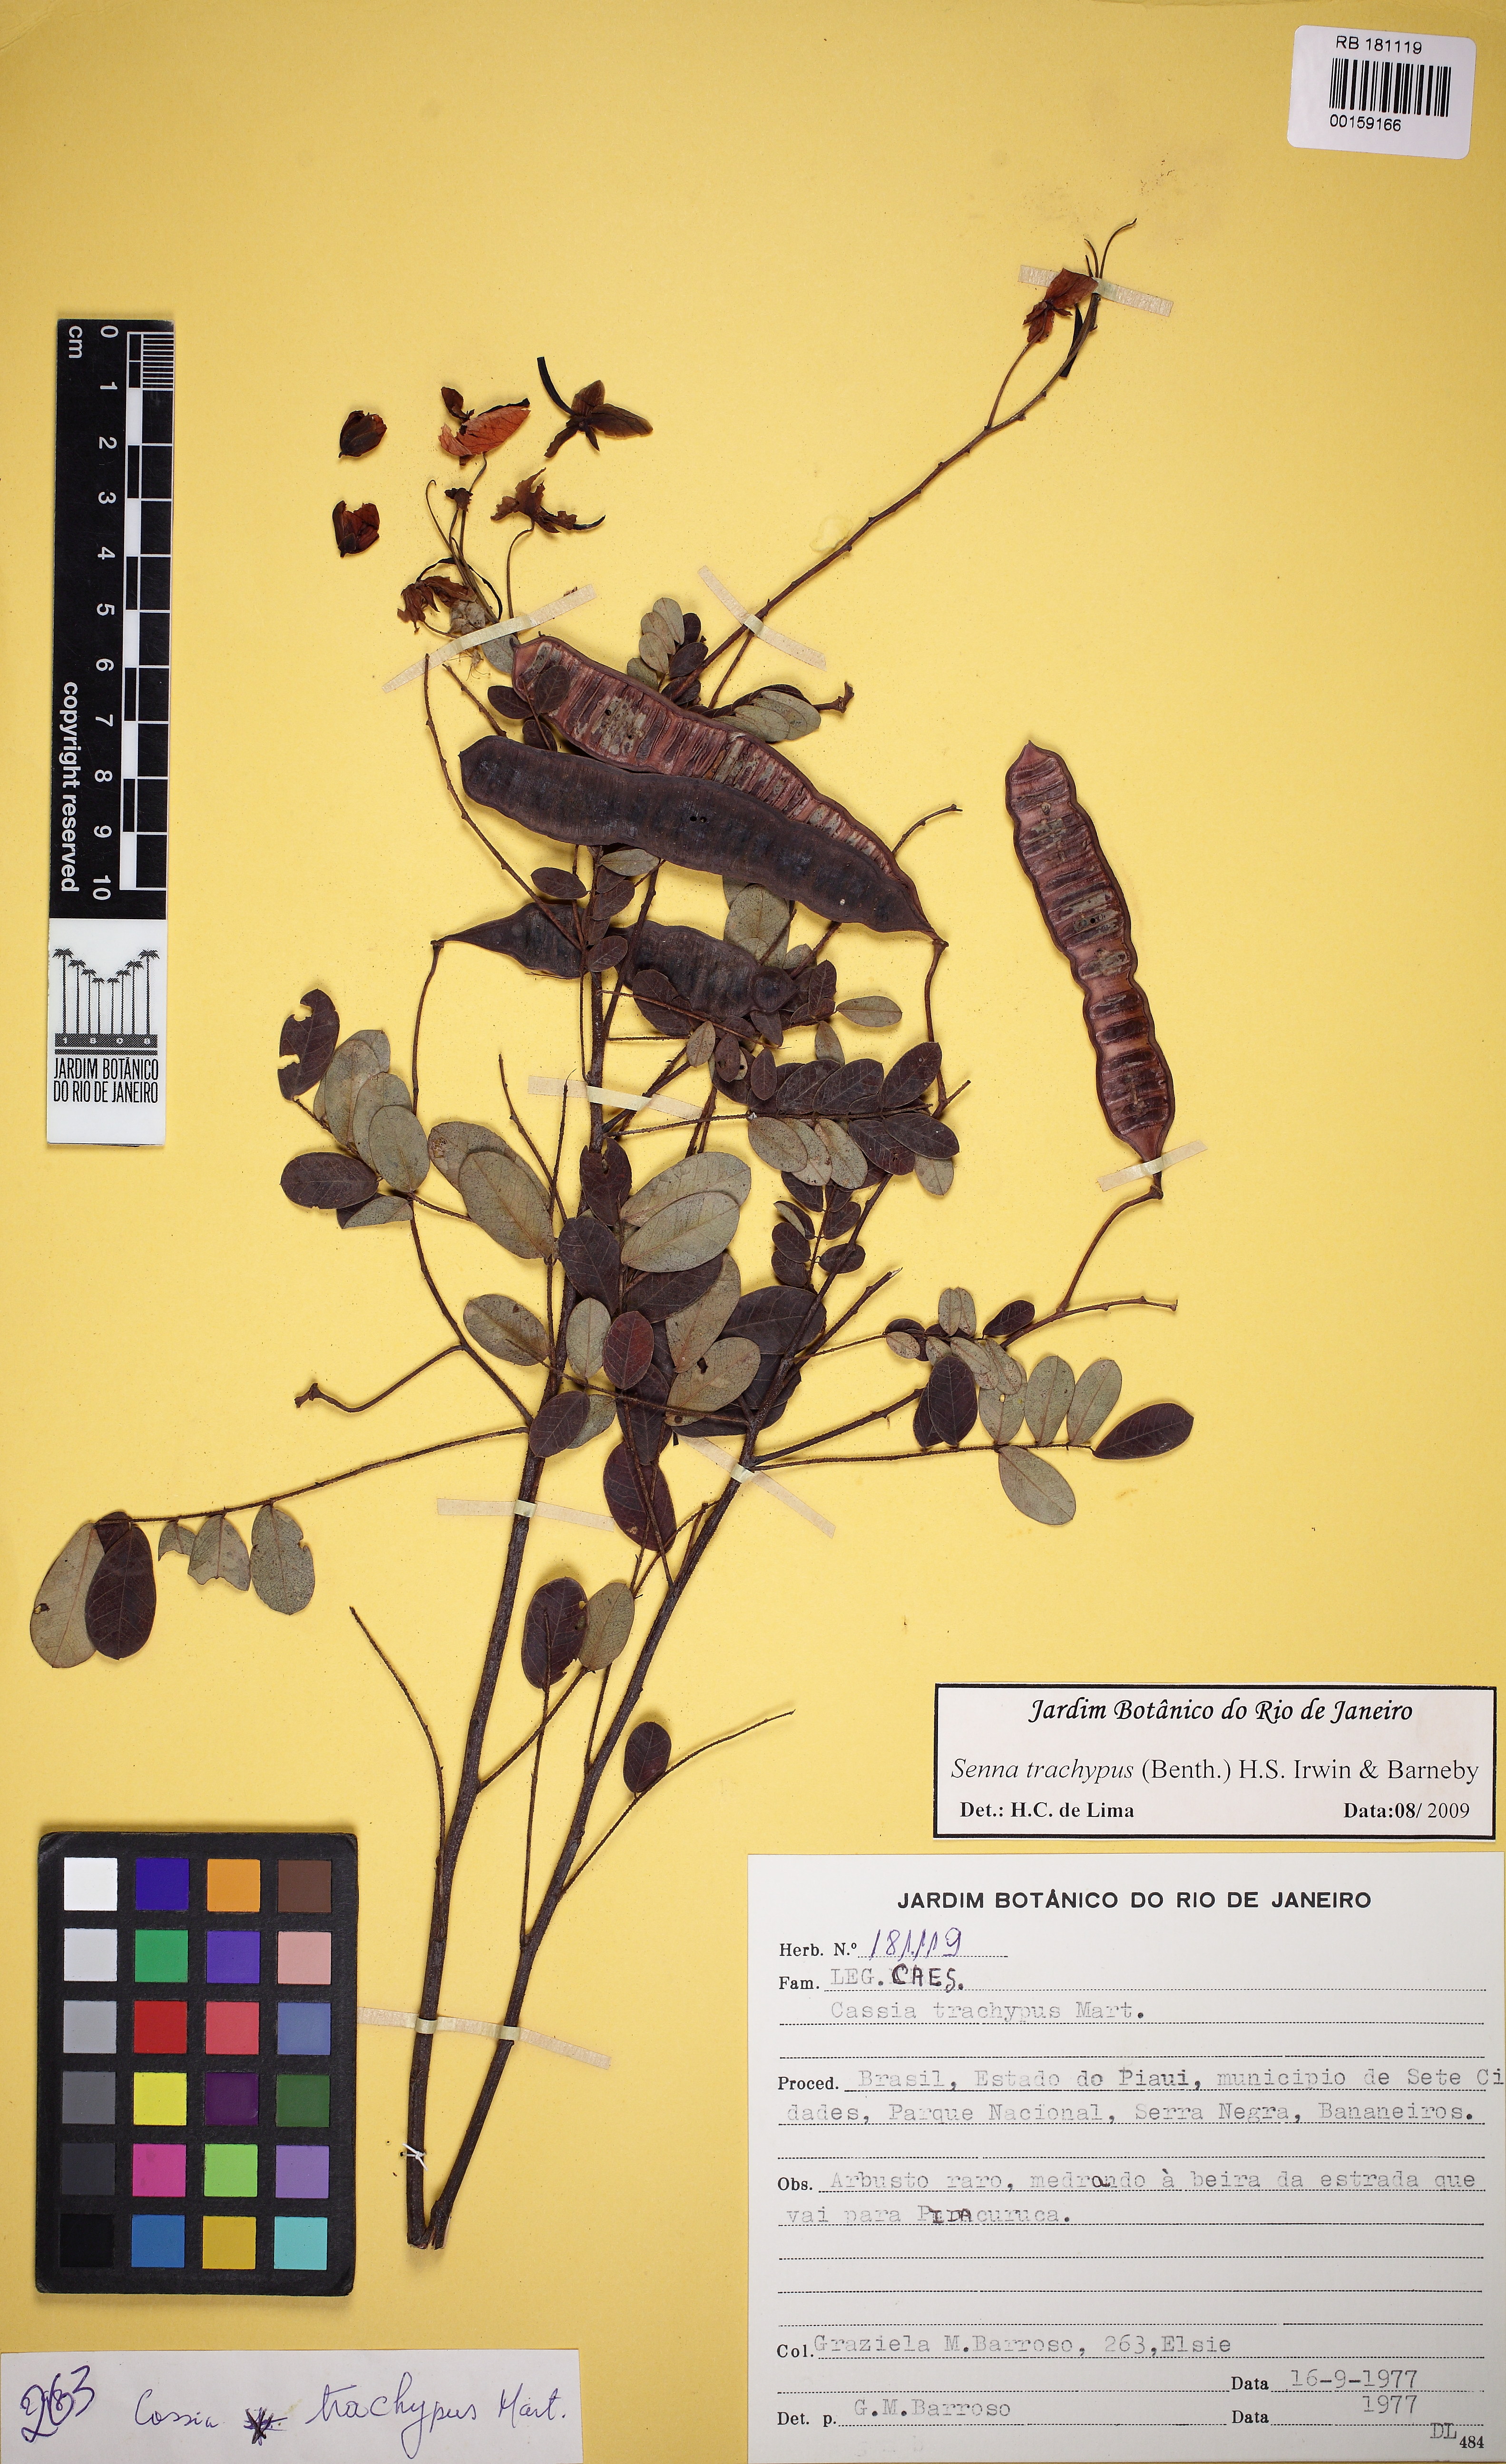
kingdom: Plantae
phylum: Tracheophyta
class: Magnoliopsida
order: Fabales
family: Fabaceae
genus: Senna
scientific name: Senna trachypus
